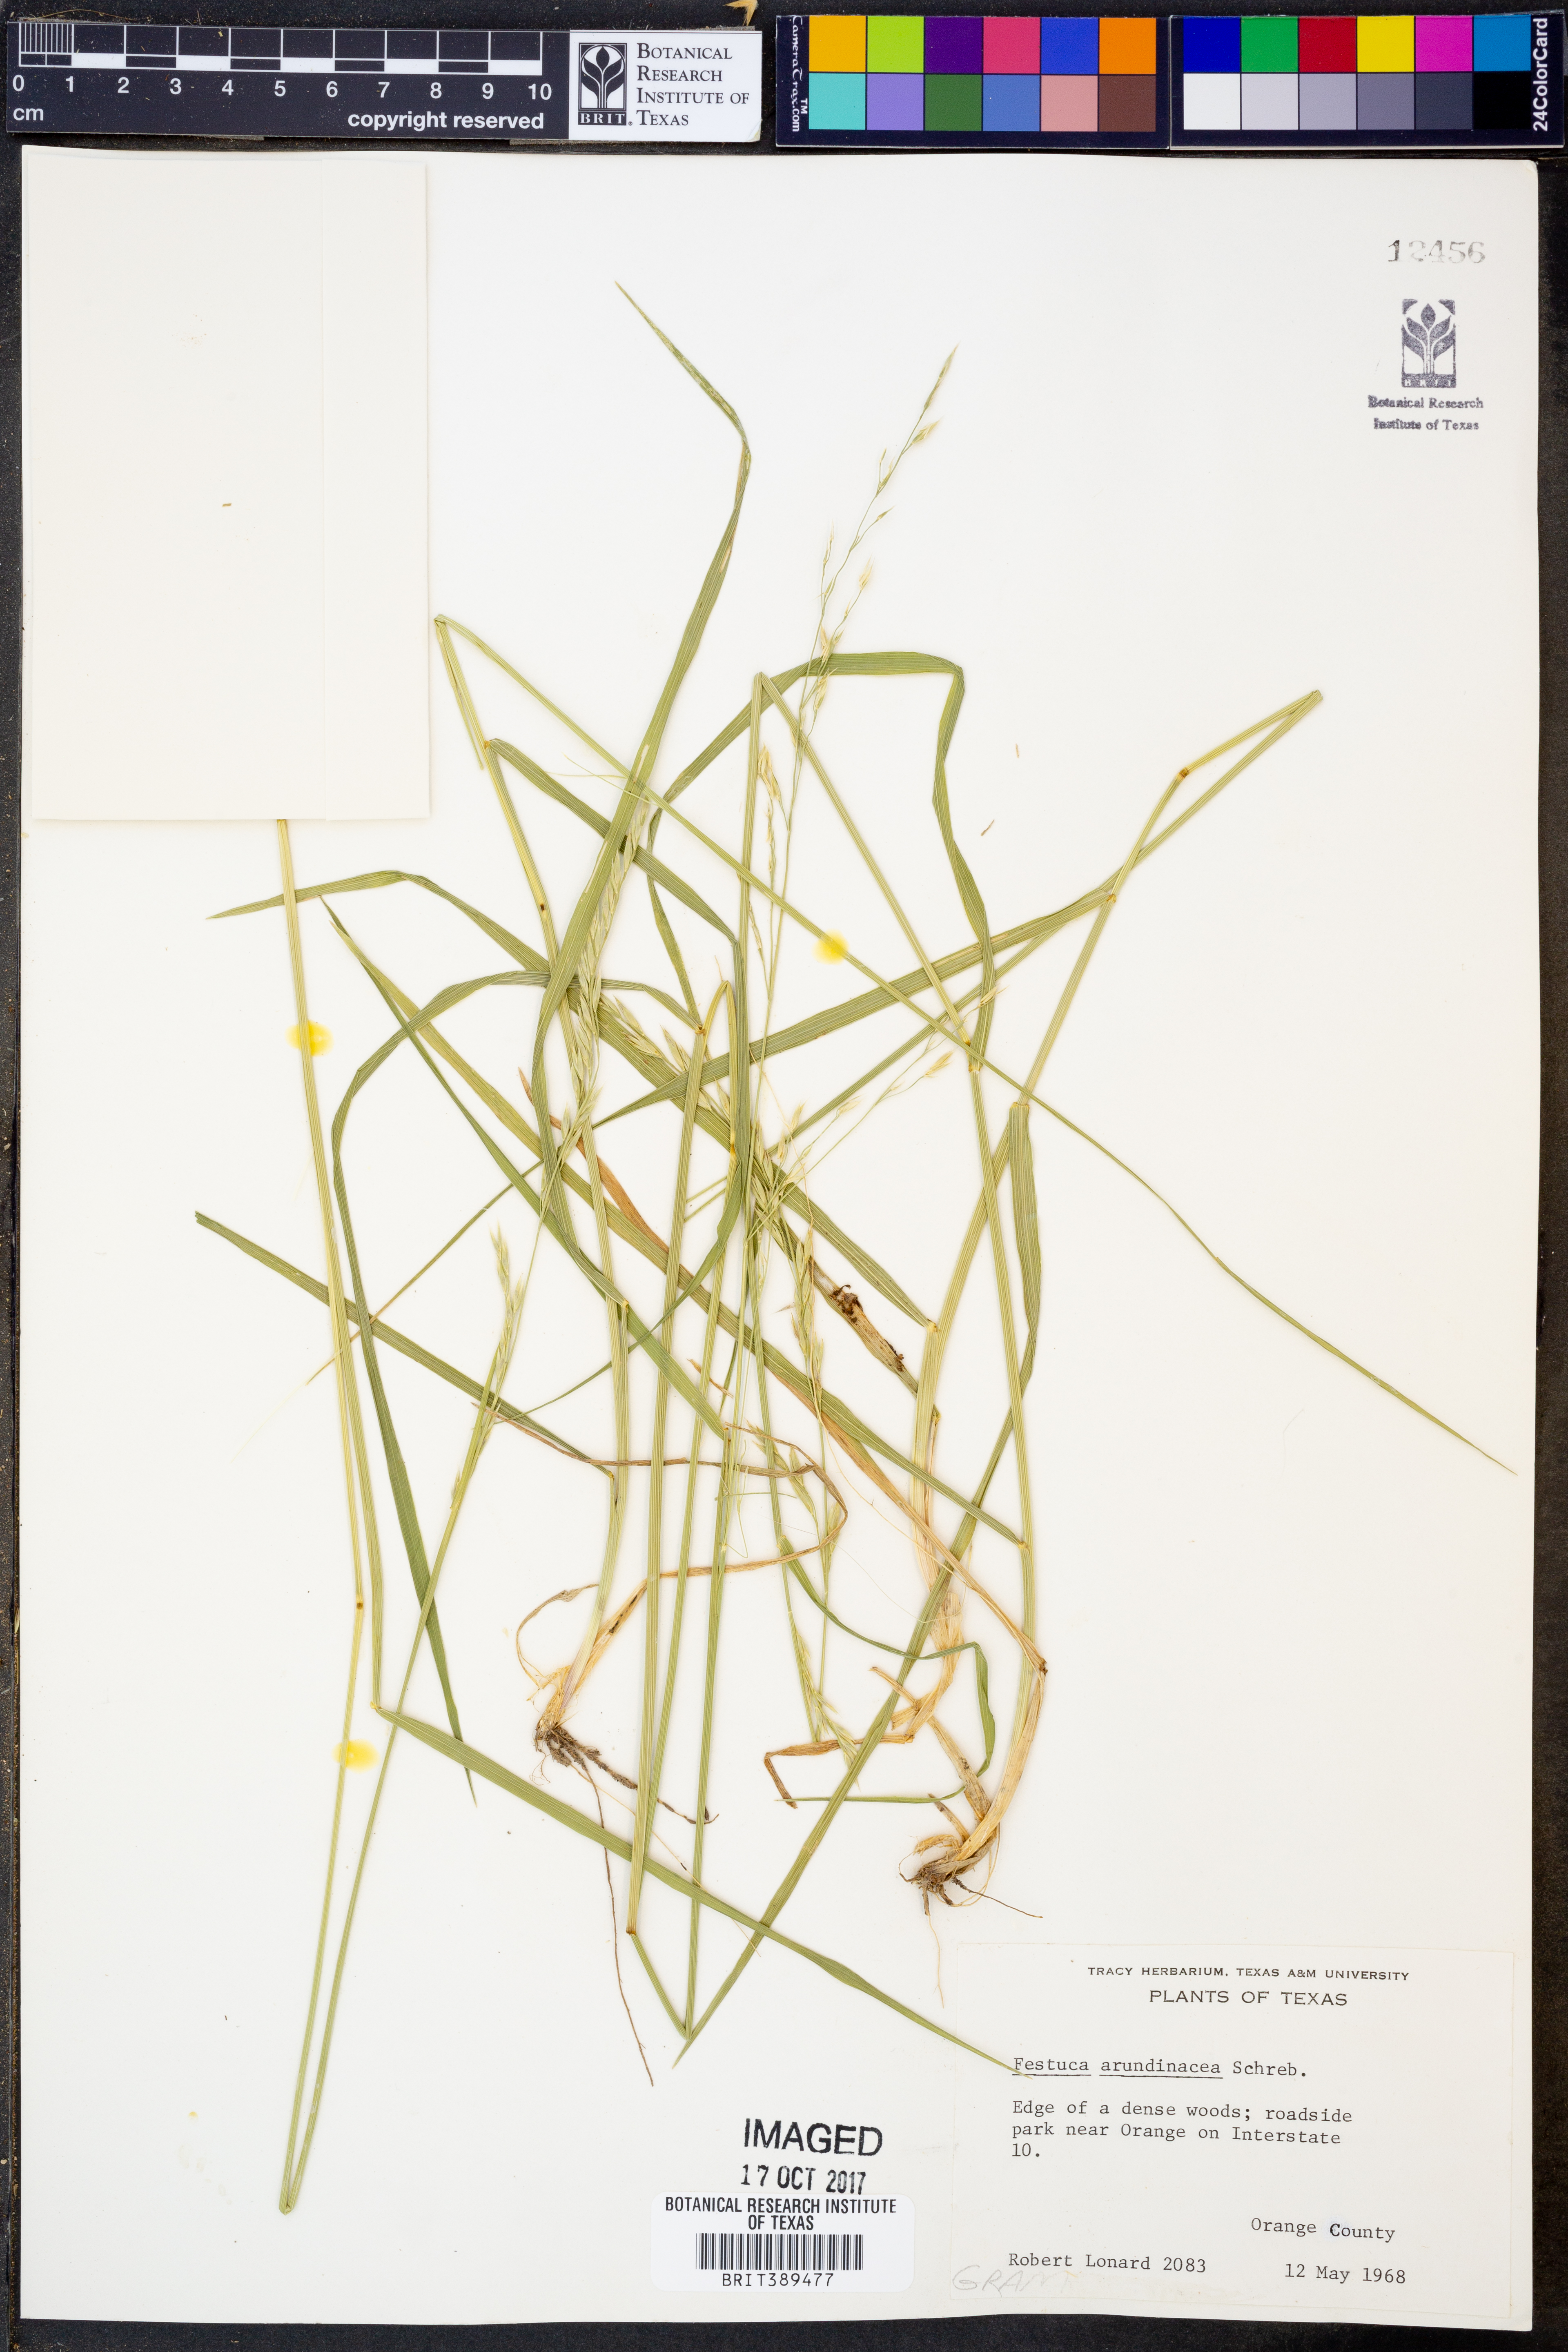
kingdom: Plantae
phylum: Tracheophyta
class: Liliopsida
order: Poales
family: Poaceae
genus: Lolium
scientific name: Lolium arundinaceum
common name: Reed fescue
